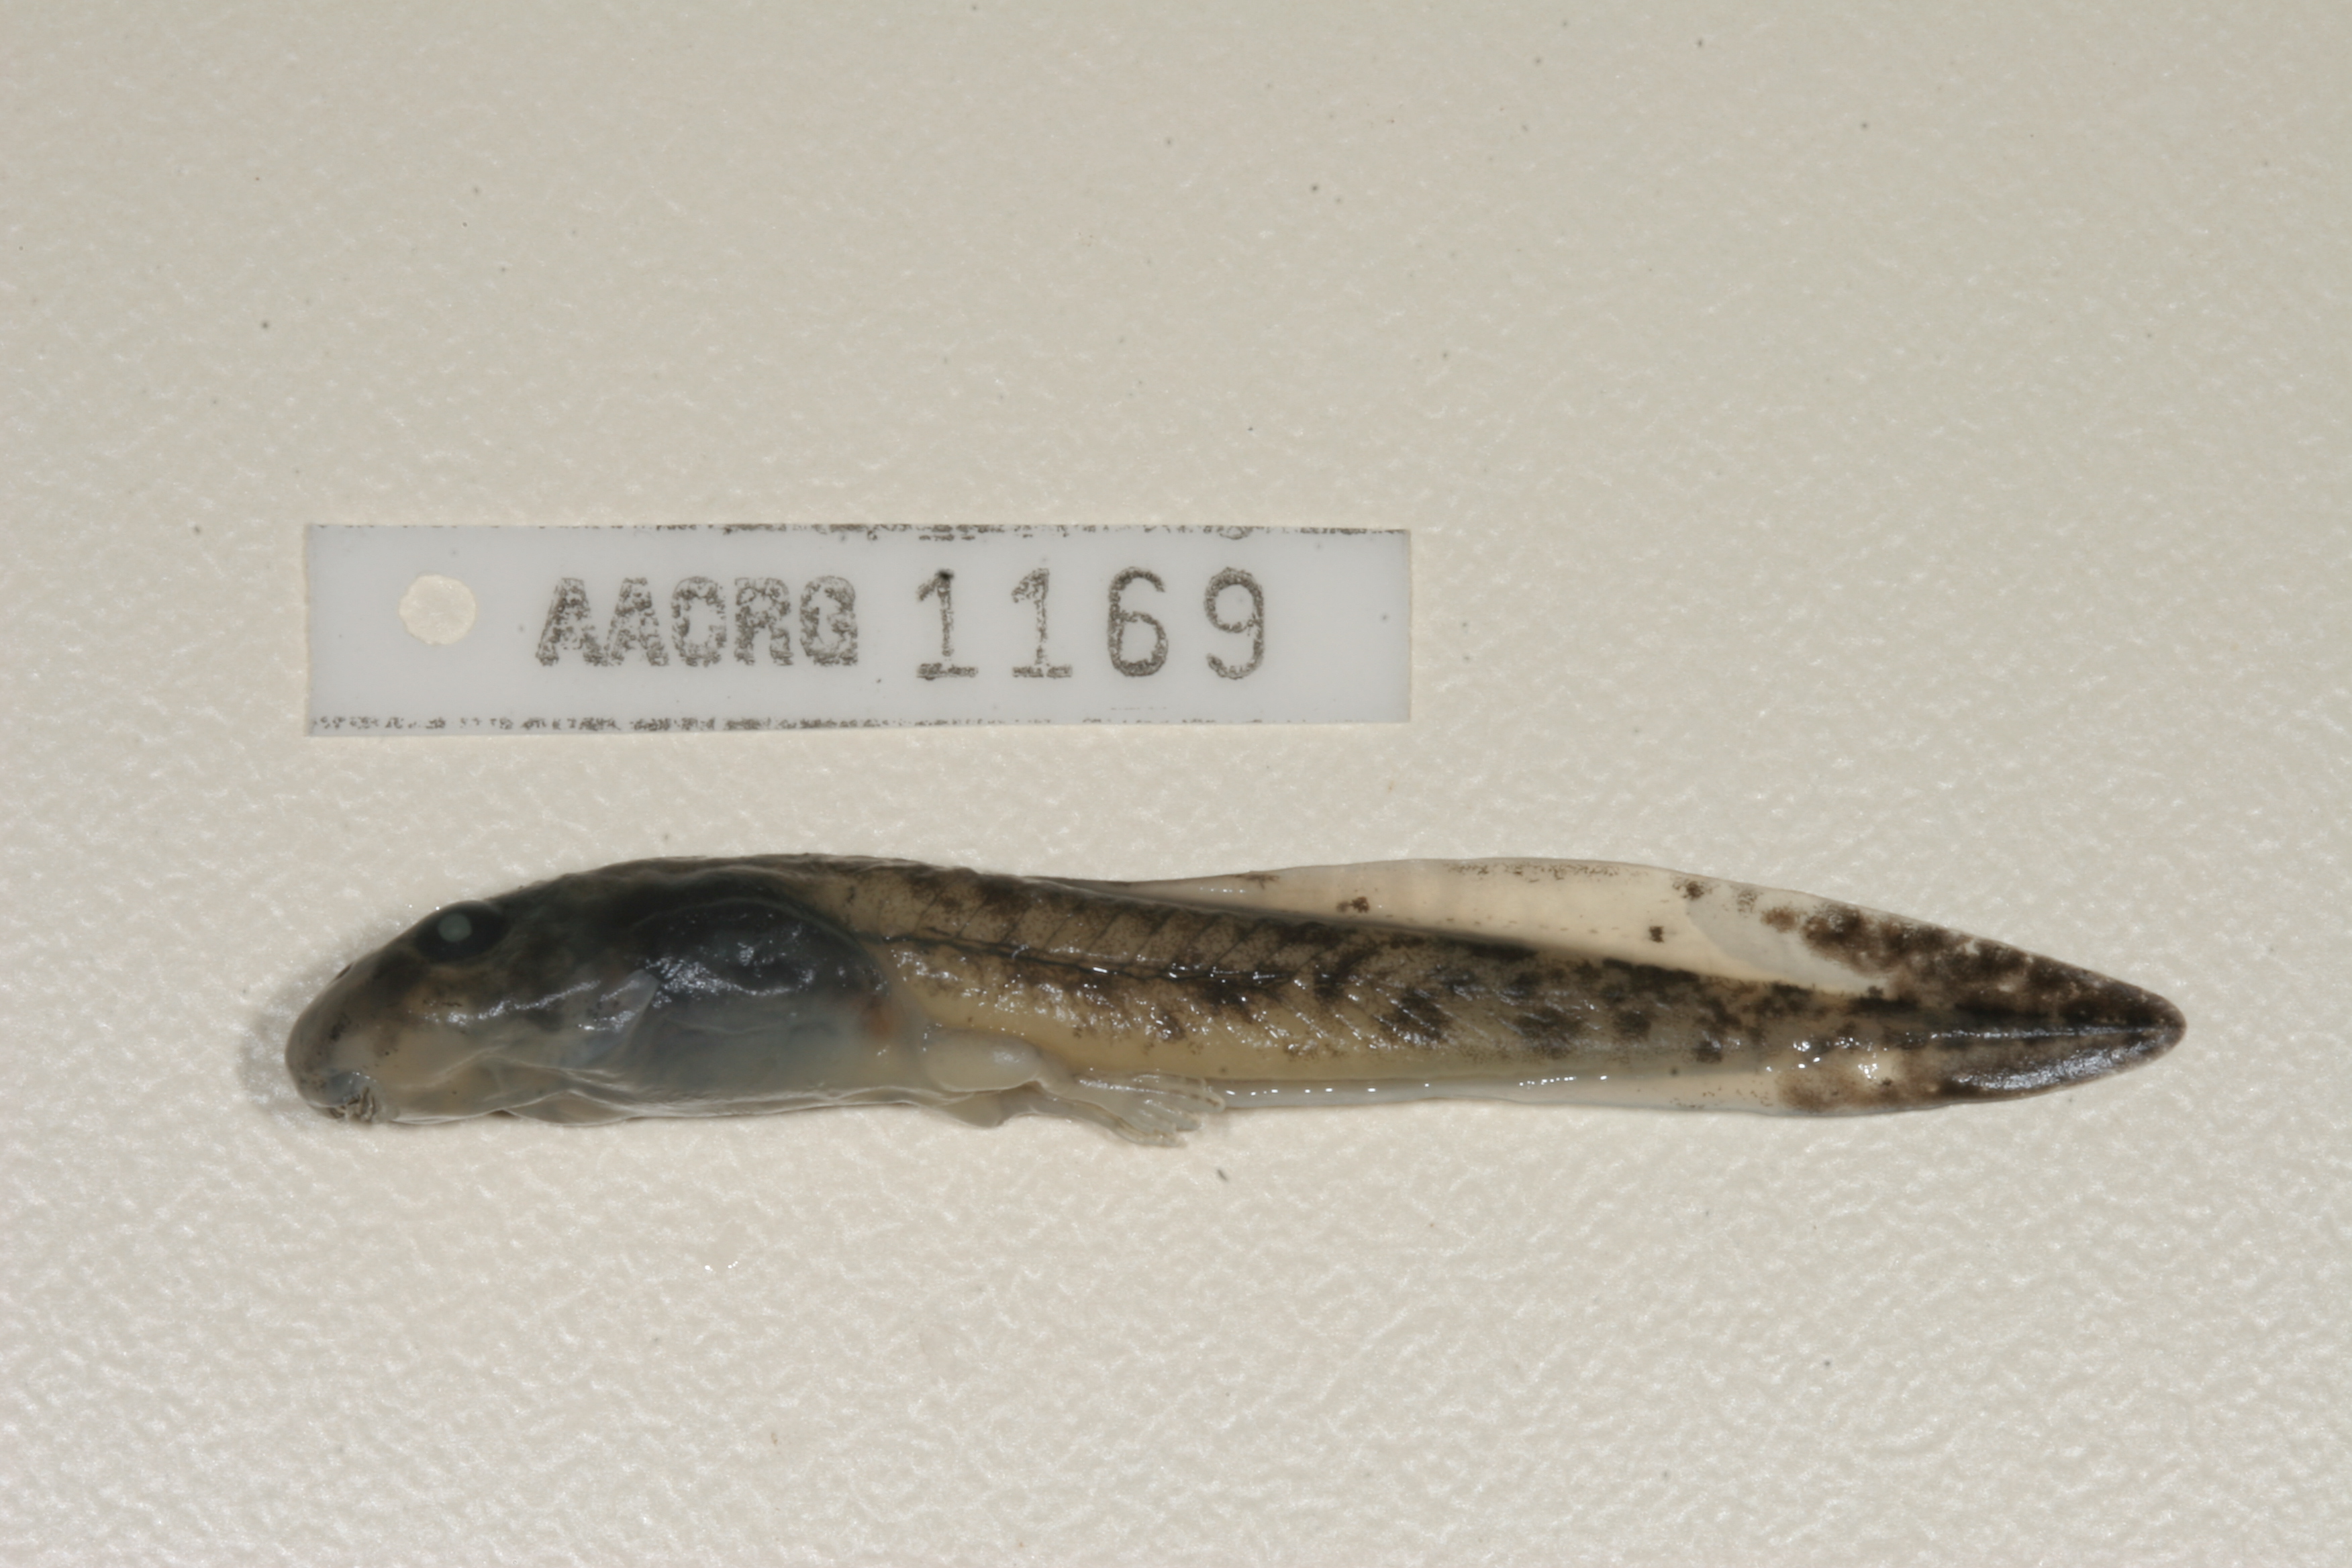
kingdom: Animalia
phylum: Chordata
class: Amphibia
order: Anura
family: Pyxicephalidae
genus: Amietia
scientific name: Amietia vertebralis
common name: Drakensberg stream frog
